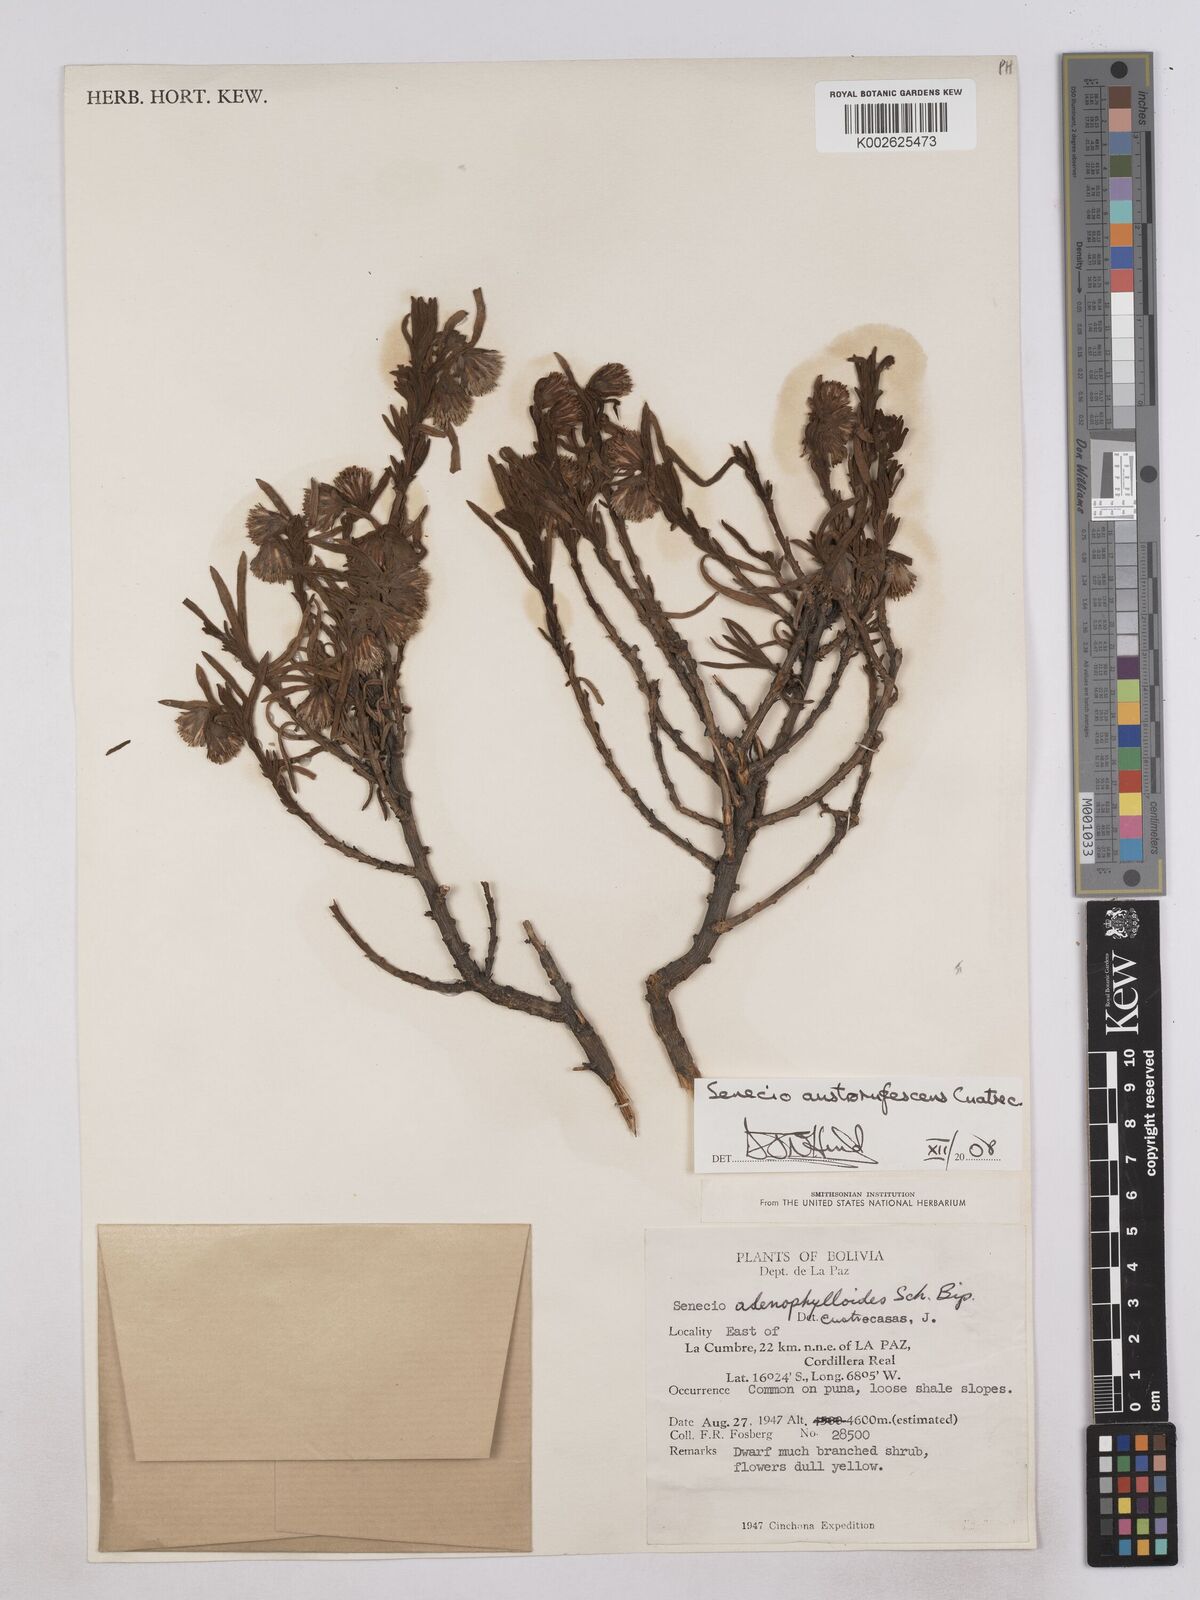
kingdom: Plantae
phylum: Tracheophyta
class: Magnoliopsida
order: Asterales
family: Asteraceae
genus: Culcitium
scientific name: Culcitium canescens
